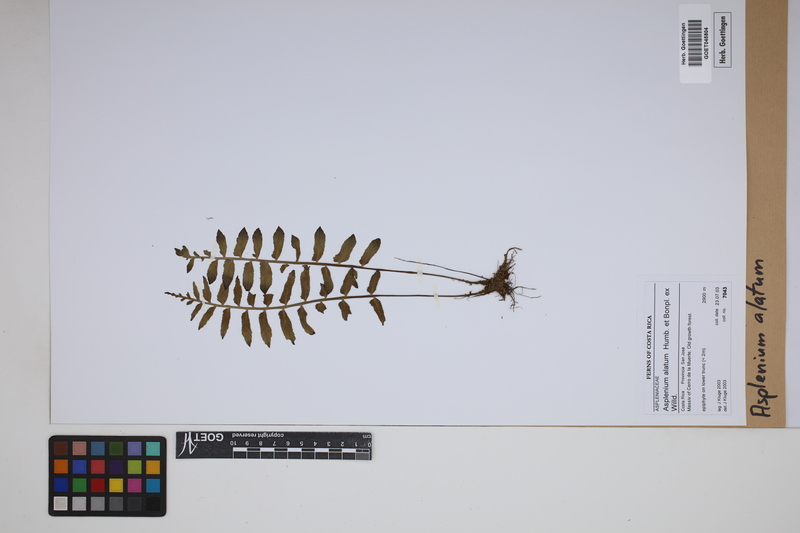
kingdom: Plantae
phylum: Tracheophyta
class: Polypodiopsida
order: Polypodiales
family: Aspleniaceae
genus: Asplenium
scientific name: Asplenium alatum
